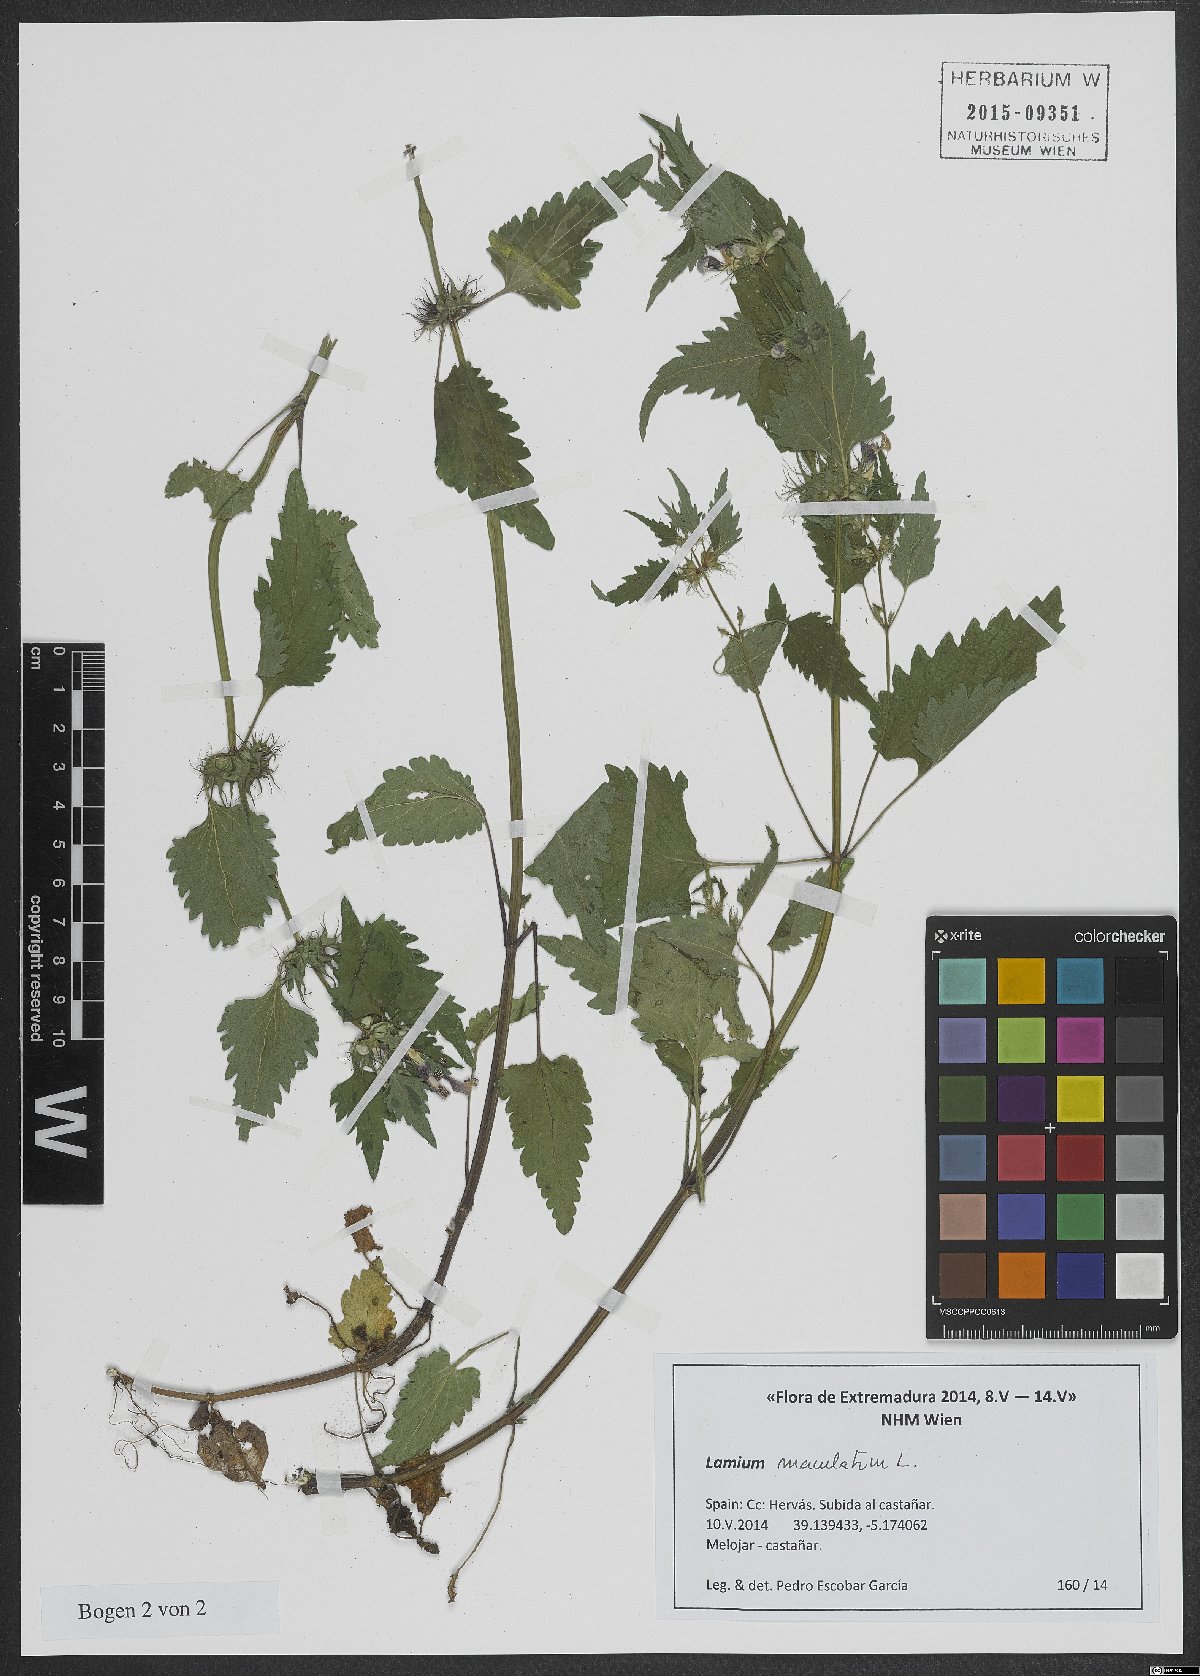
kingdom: Plantae
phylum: Tracheophyta
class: Magnoliopsida
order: Lamiales
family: Lamiaceae
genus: Lamium
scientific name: Lamium maculatum
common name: Spotted dead-nettle
